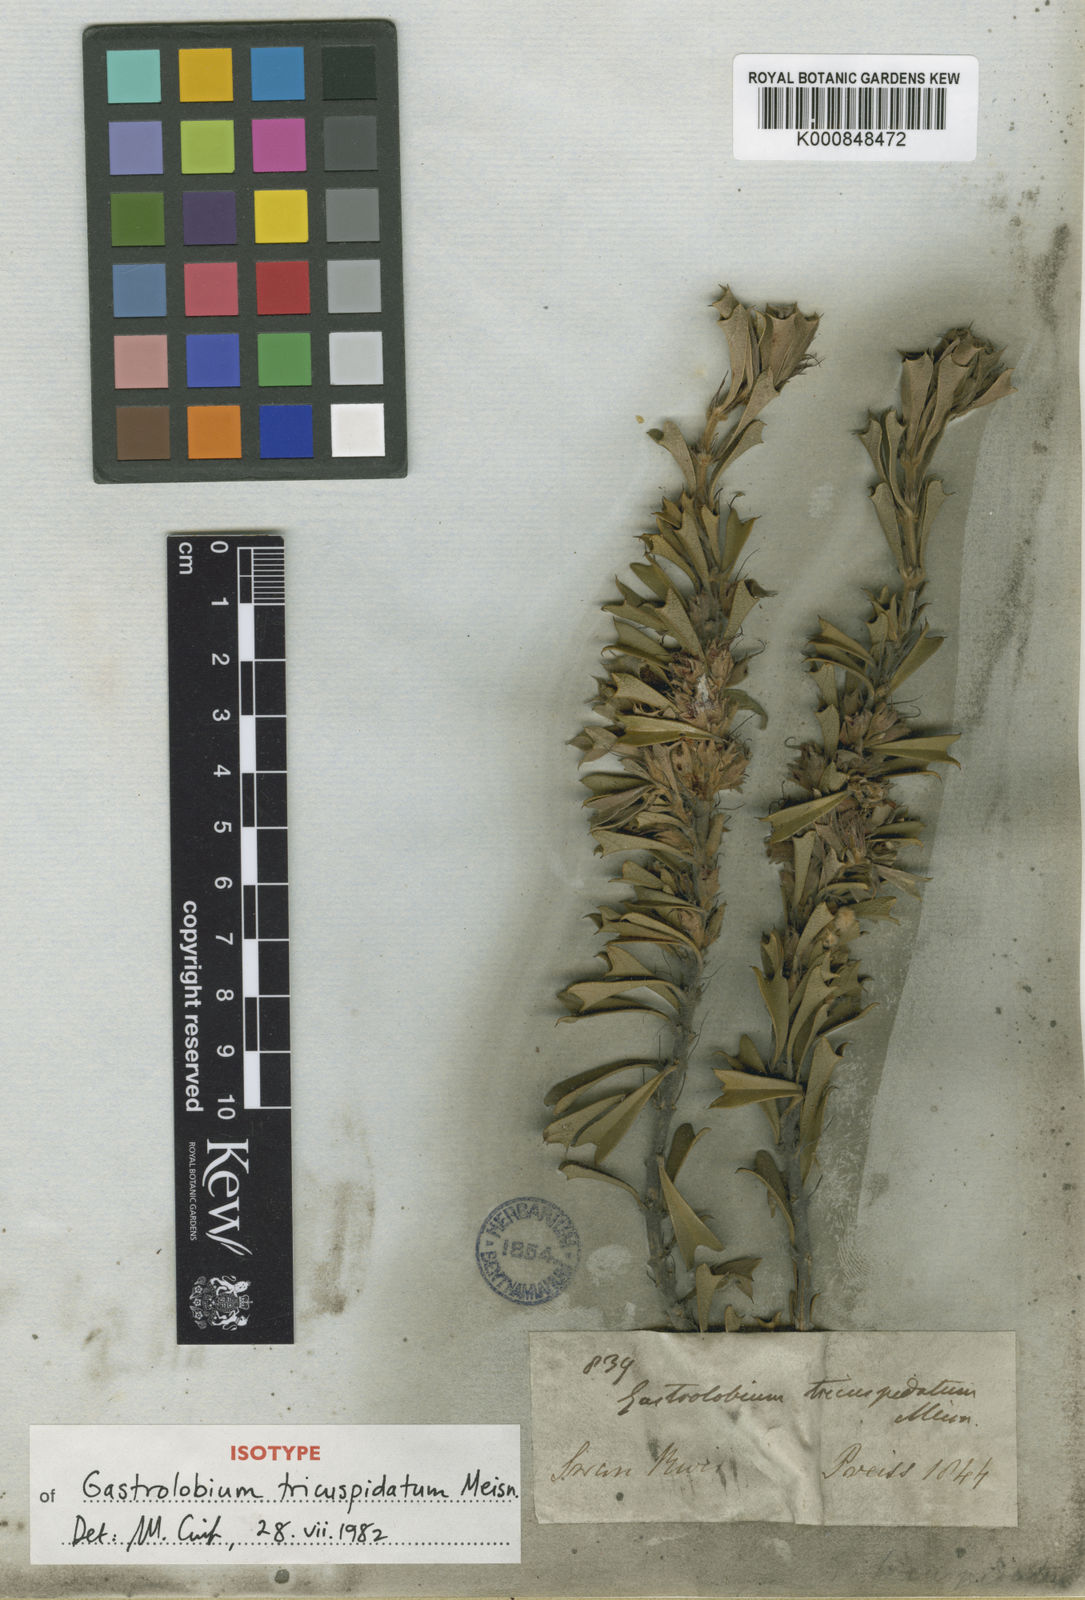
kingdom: Plantae
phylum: Tracheophyta
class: Magnoliopsida
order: Fabales
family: Fabaceae
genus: Gastrolobium
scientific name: Gastrolobium tricuspidatum
